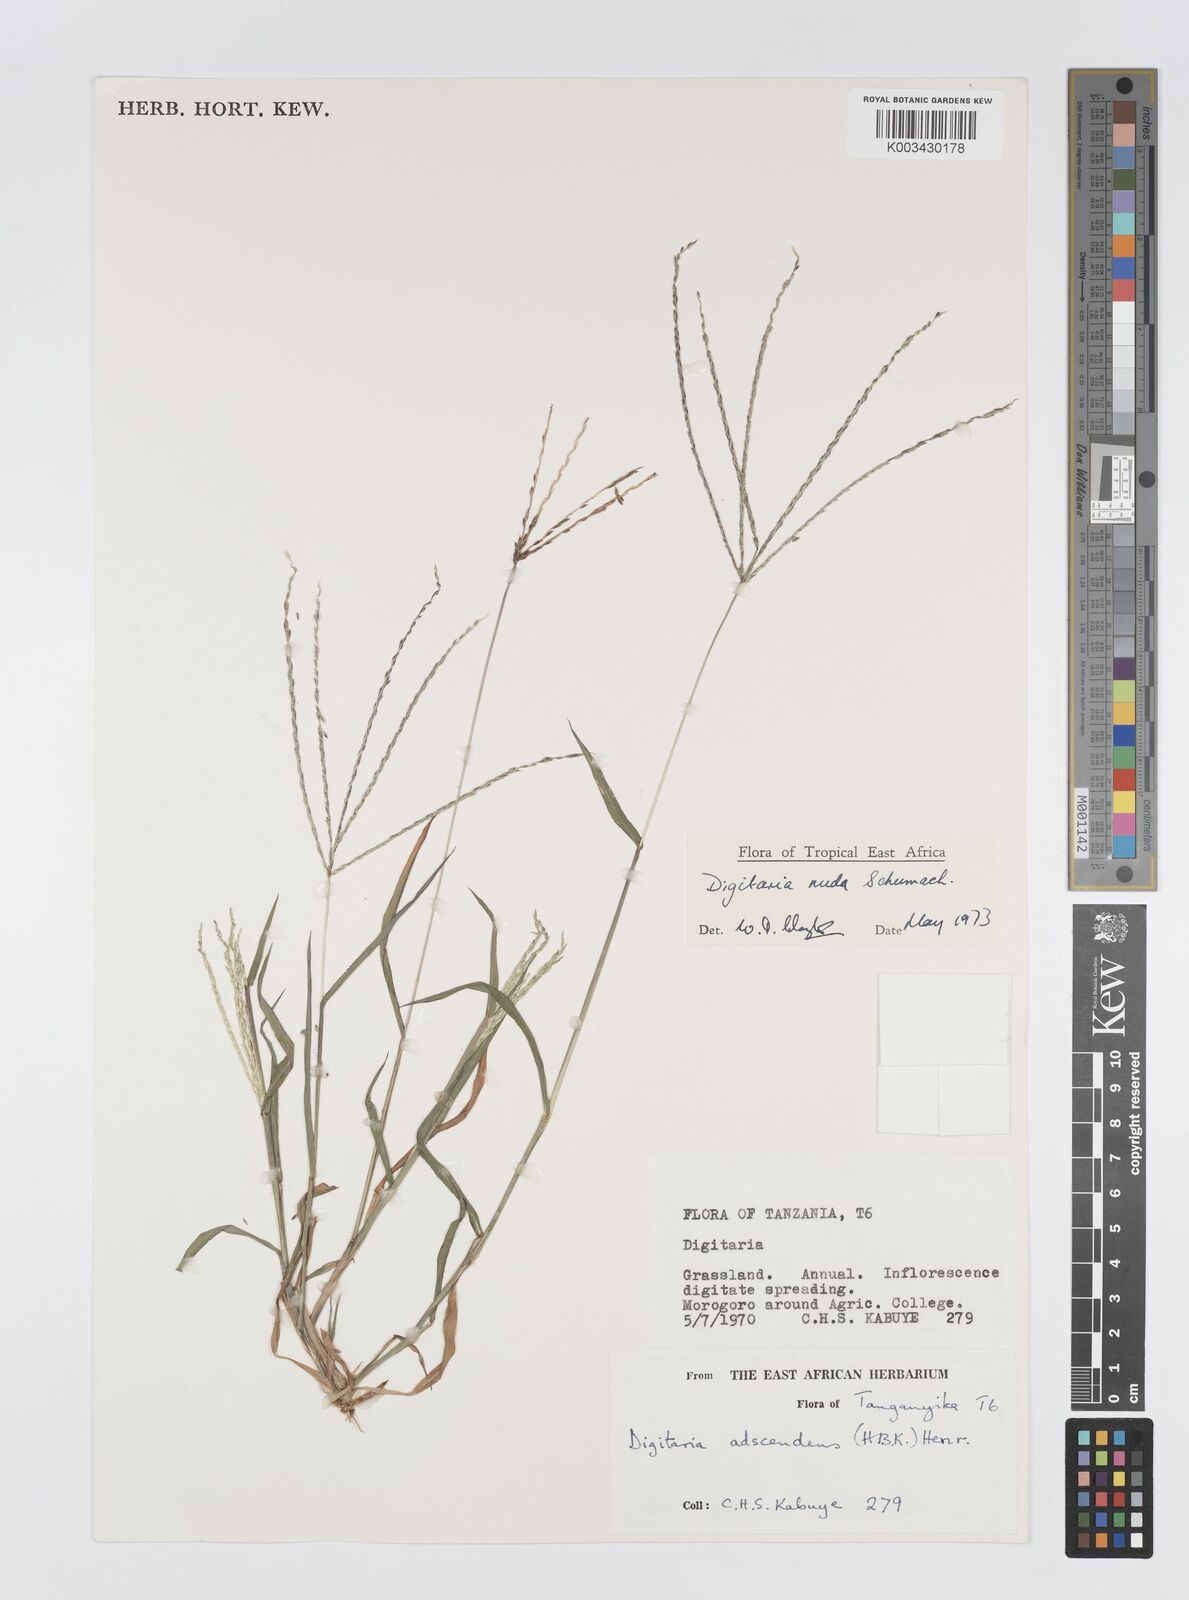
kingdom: Plantae
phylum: Tracheophyta
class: Liliopsida
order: Poales
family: Poaceae
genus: Digitaria
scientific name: Digitaria nuda
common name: Naked crabgrass
